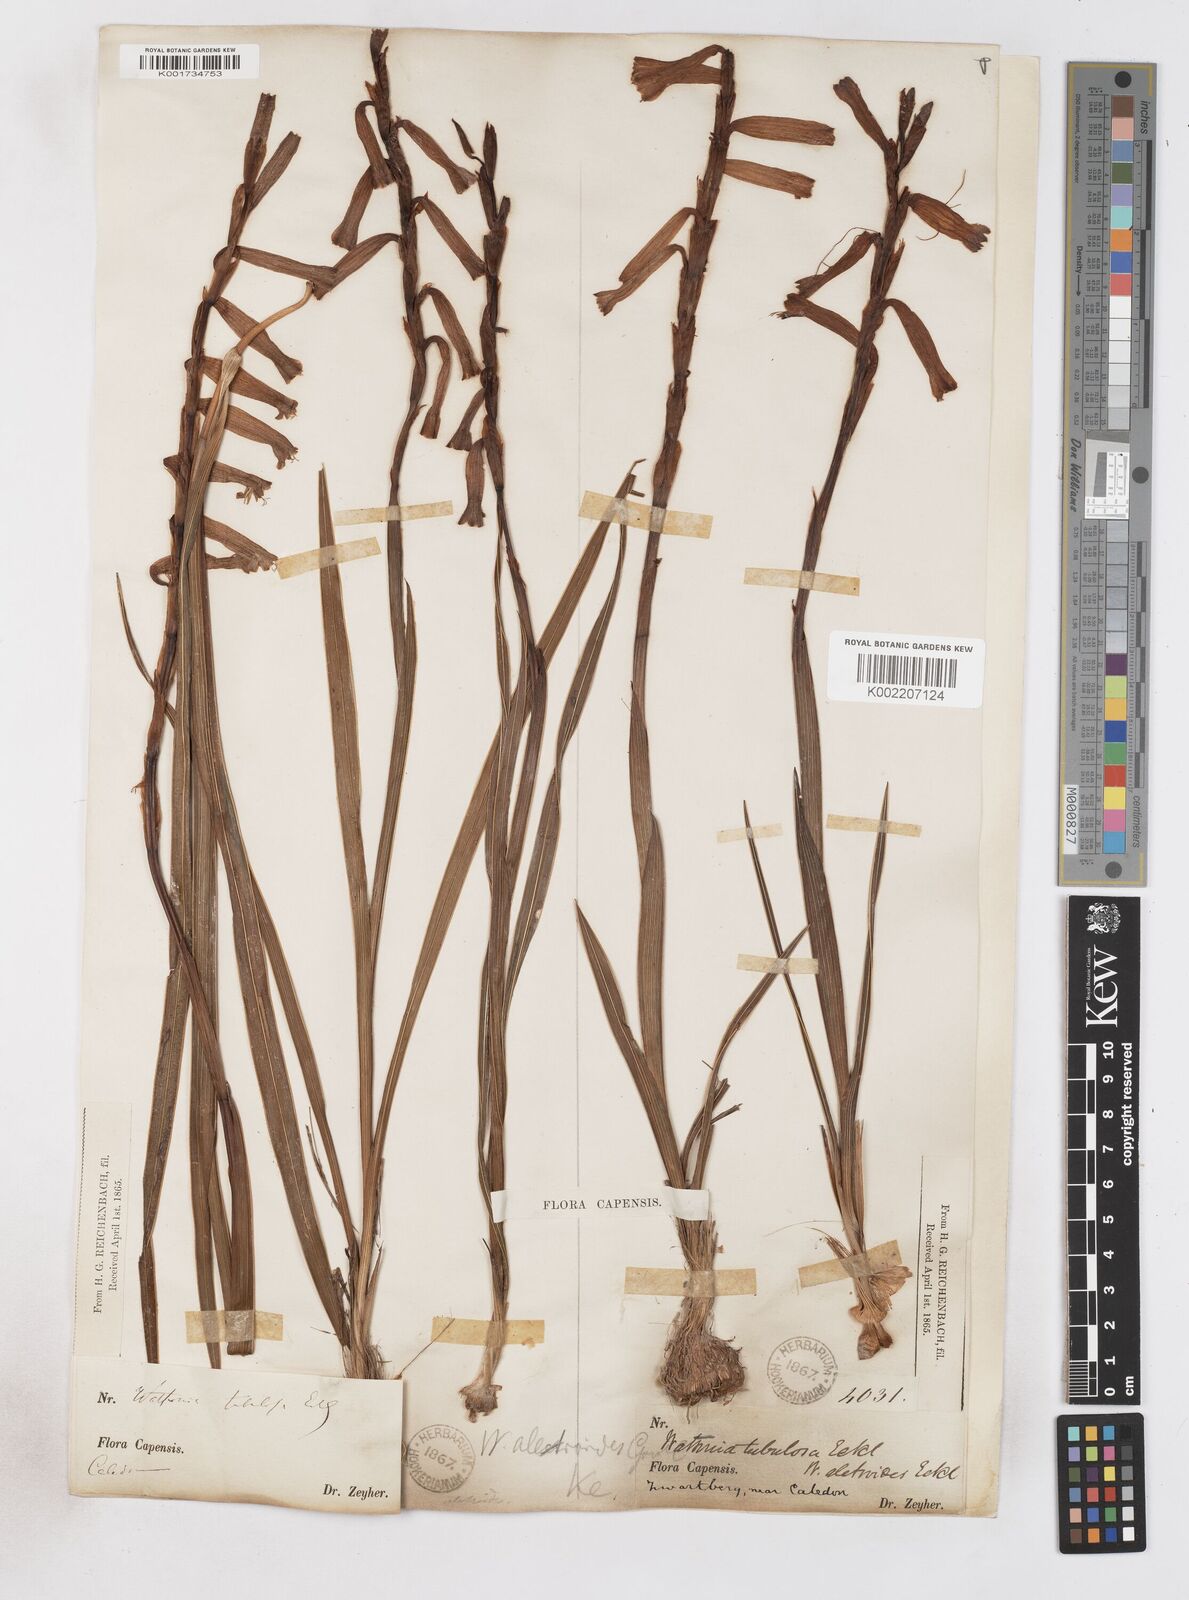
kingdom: Plantae
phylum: Tracheophyta
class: Liliopsida
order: Asparagales
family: Iridaceae
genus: Watsonia
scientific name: Watsonia aletroides
